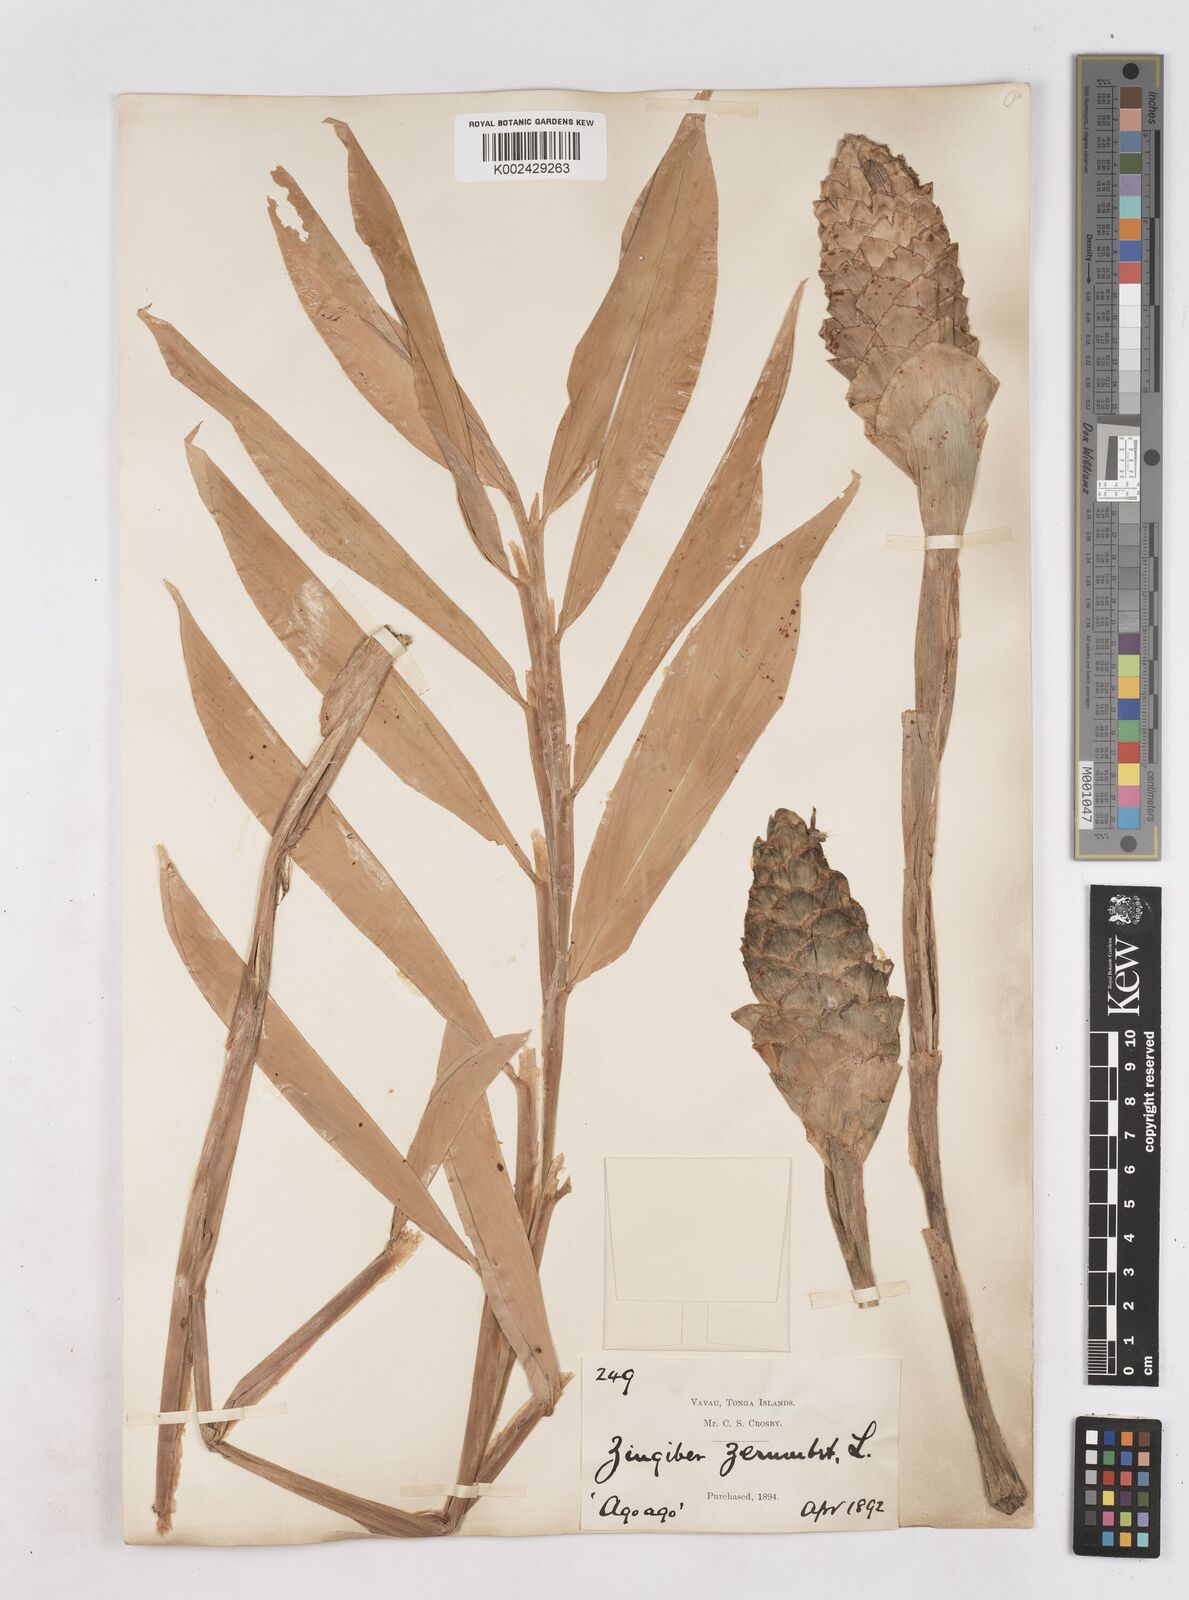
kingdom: Plantae
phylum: Tracheophyta
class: Liliopsida
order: Zingiberales
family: Zingiberaceae
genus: Zingiber
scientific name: Zingiber zerumbet
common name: Bitter ginger
